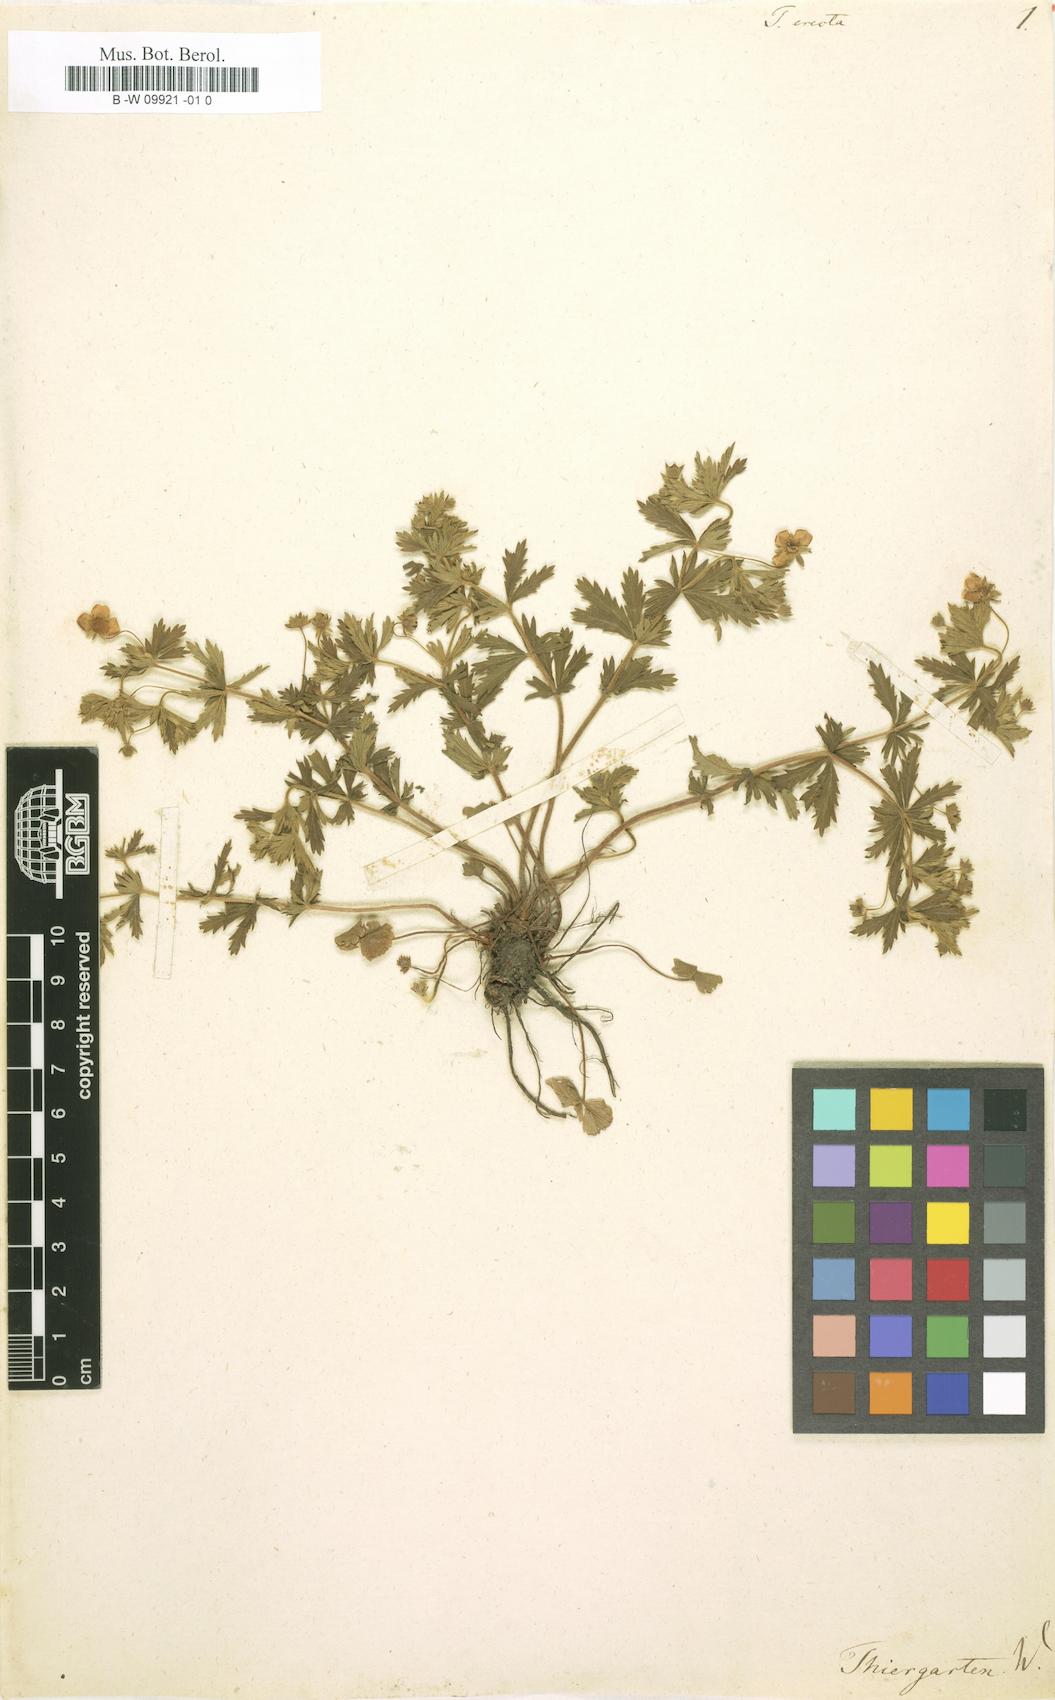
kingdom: Plantae
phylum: Tracheophyta
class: Magnoliopsida
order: Rosales
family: Rosaceae
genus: Potentilla
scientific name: Potentilla erecta
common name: Tormentil
